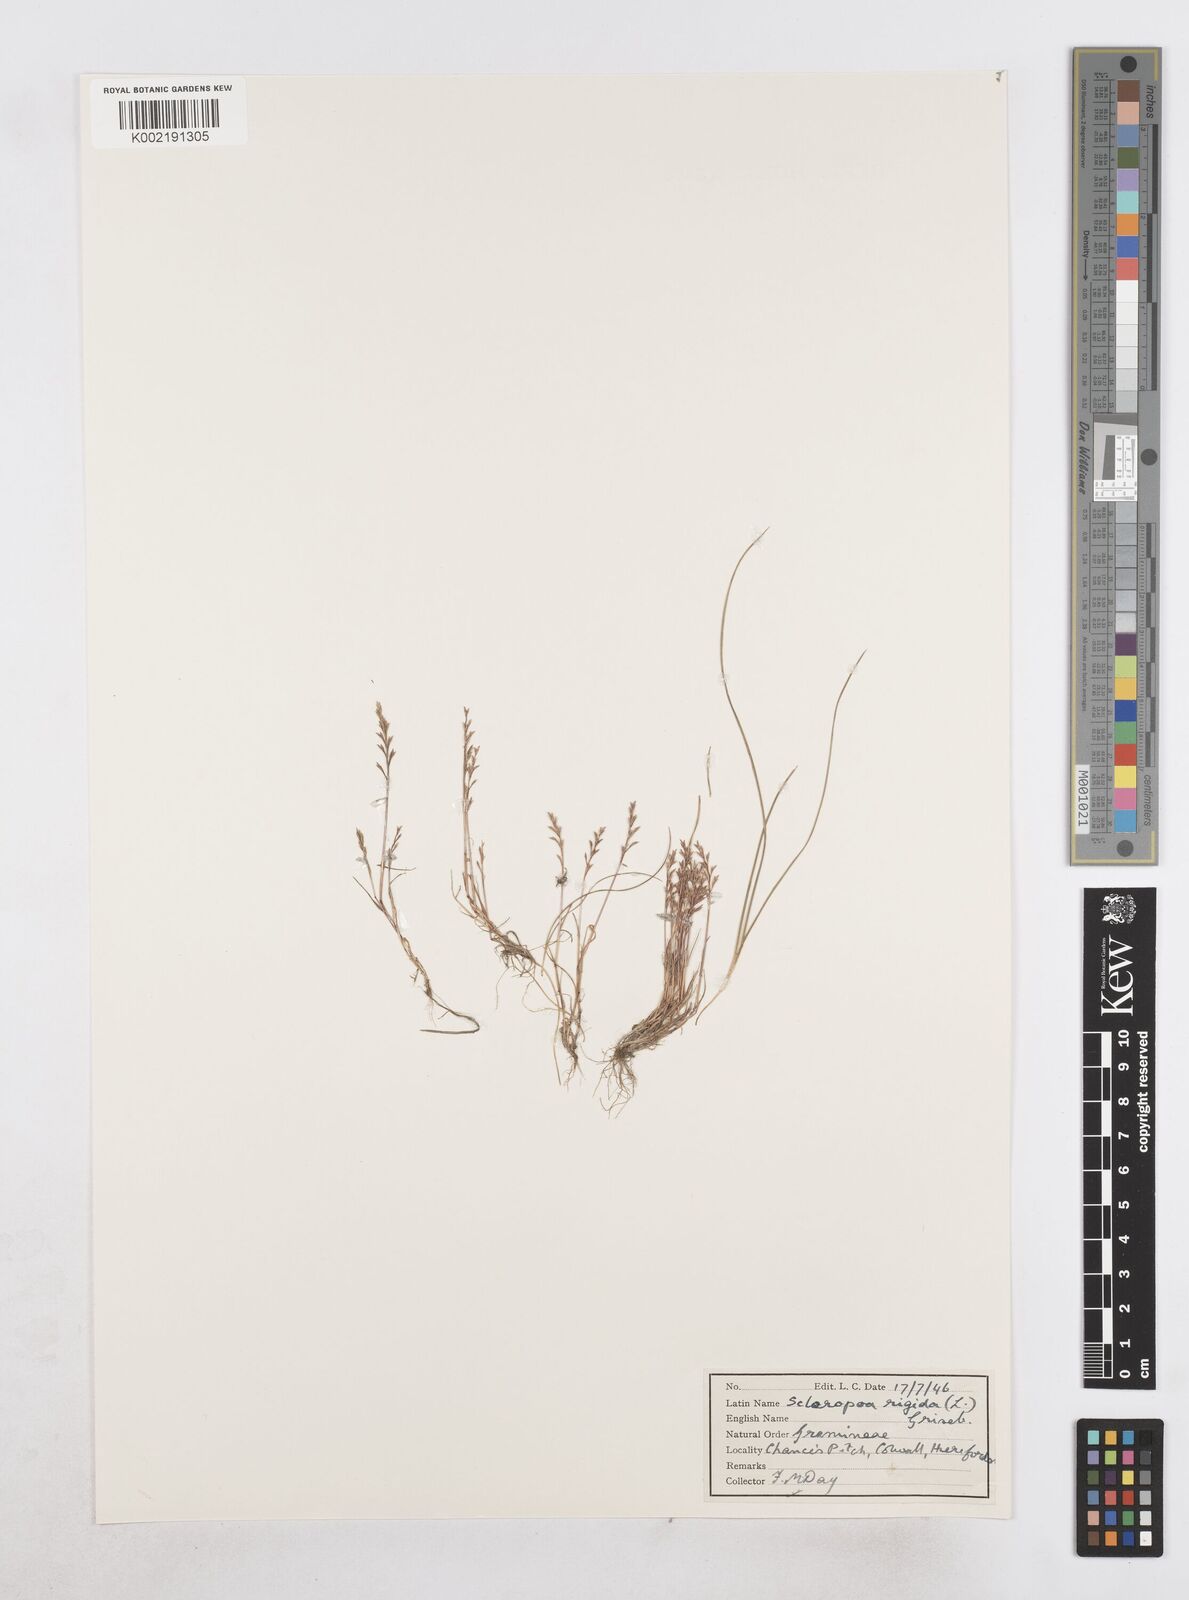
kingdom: Plantae
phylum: Tracheophyta
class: Liliopsida
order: Poales
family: Poaceae
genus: Catapodium
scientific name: Catapodium rigidum
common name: Fern-grass
